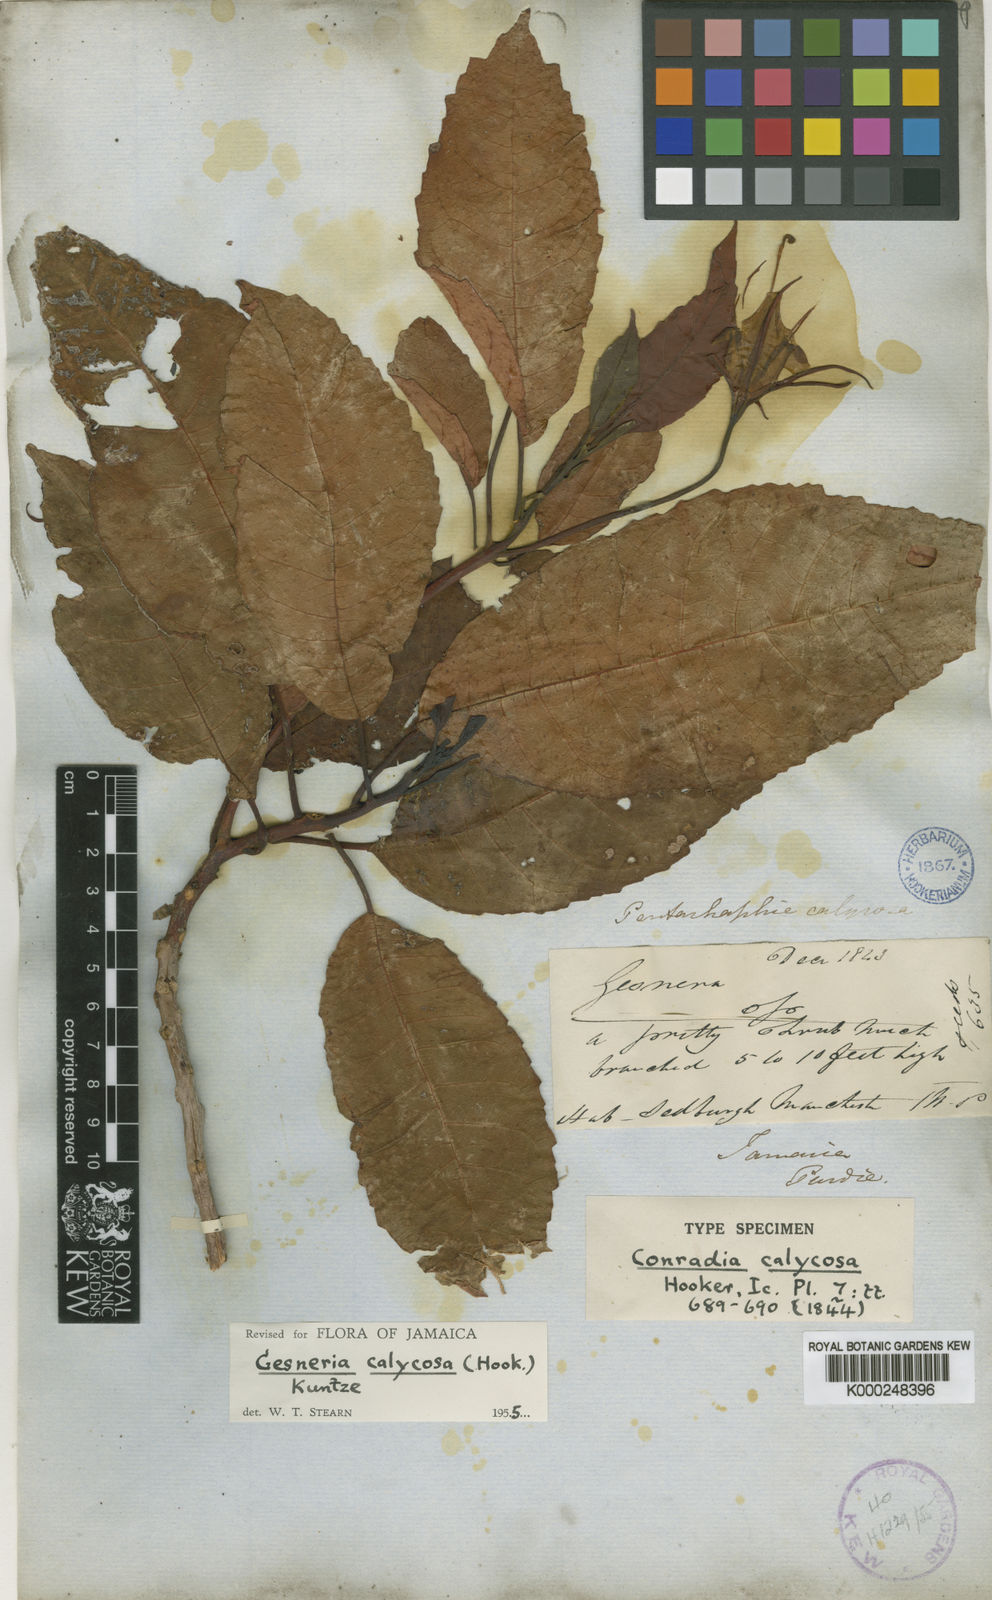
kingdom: Plantae
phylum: Tracheophyta
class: Magnoliopsida
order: Lamiales
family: Gesneriaceae
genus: Gesneria
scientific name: Gesneria calycosa
